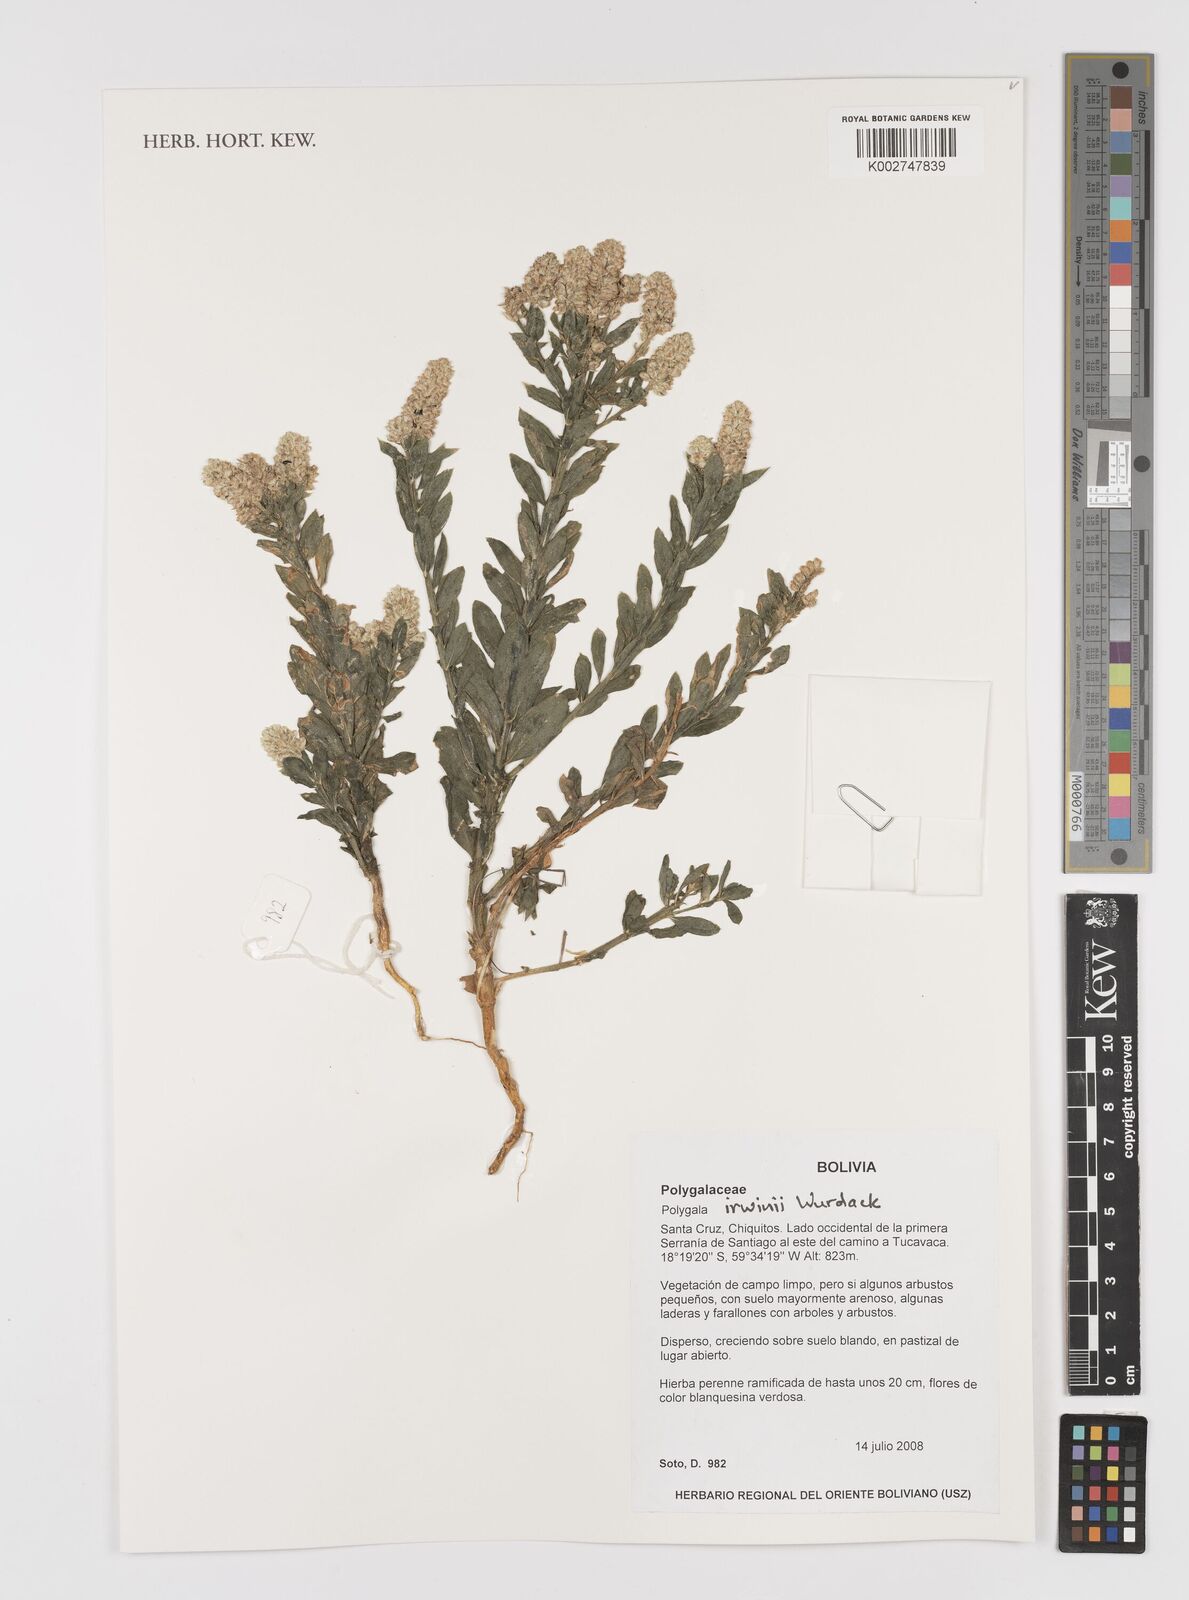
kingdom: Plantae
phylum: Tracheophyta
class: Magnoliopsida
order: Fabales
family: Polygalaceae
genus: Polygala
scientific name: Polygala irwinii
